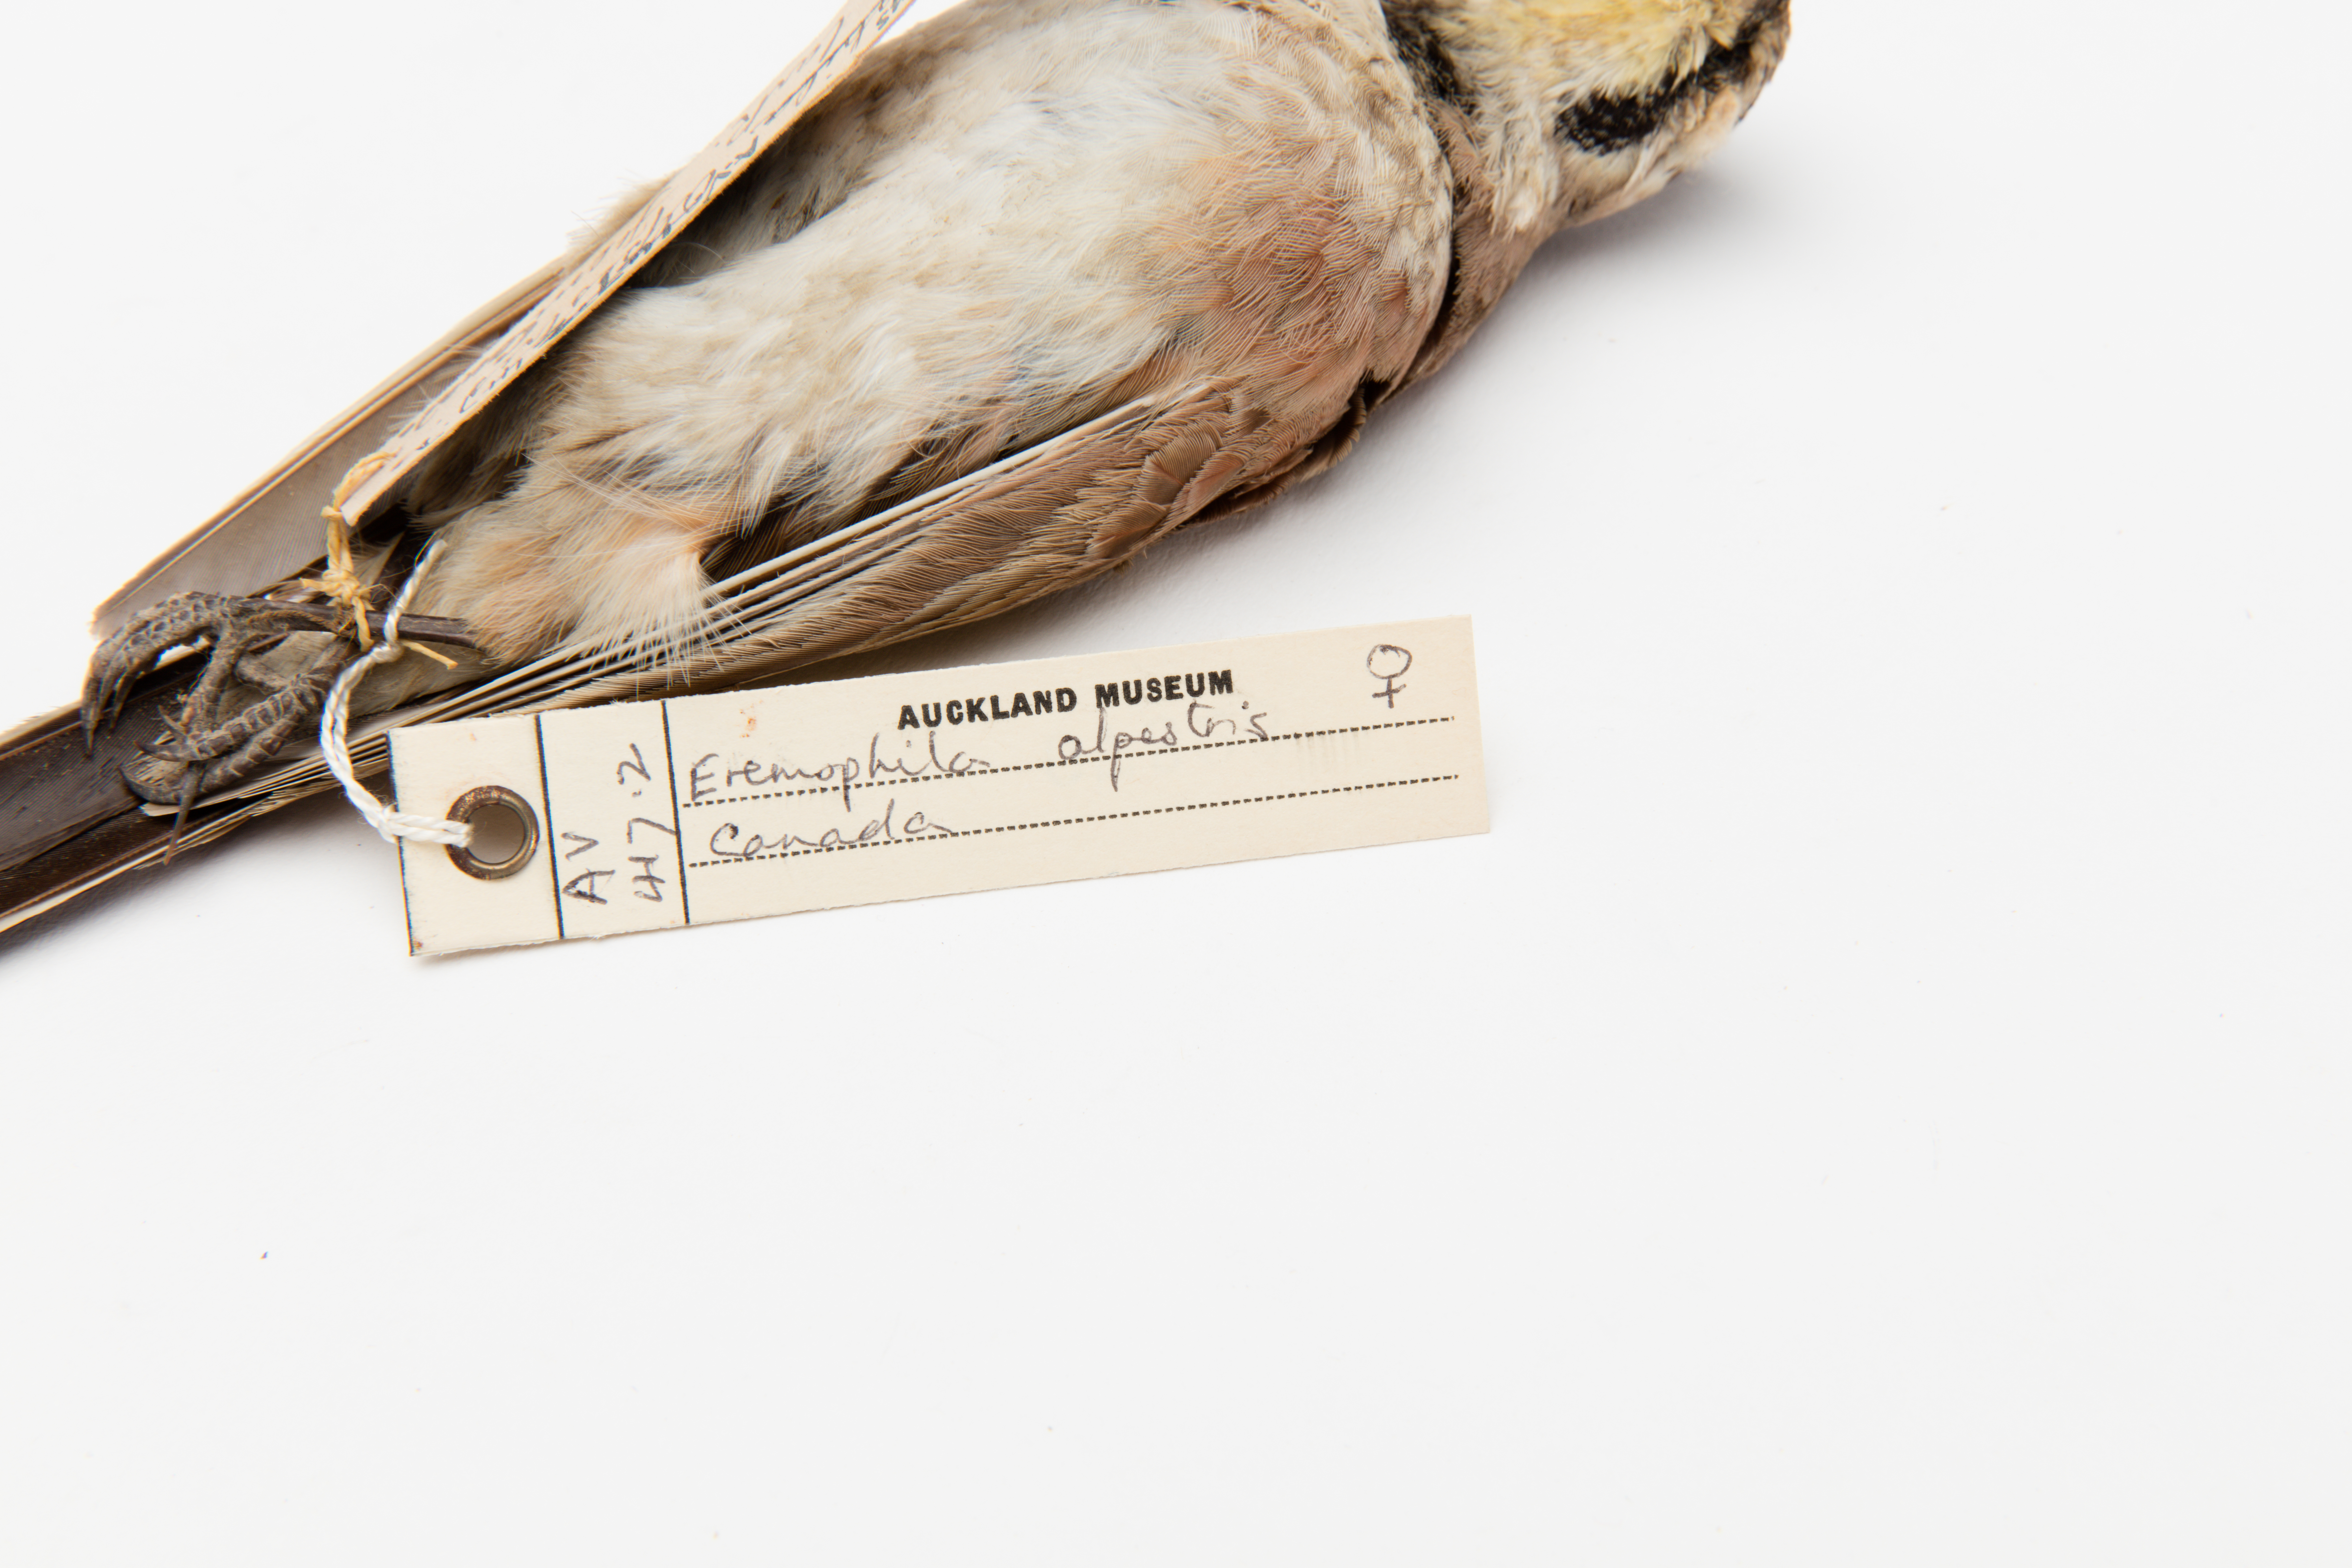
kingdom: Animalia
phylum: Chordata
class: Aves
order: Passeriformes
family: Alaudidae
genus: Eremophila
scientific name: Eremophila alpestris
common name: Horned lark
